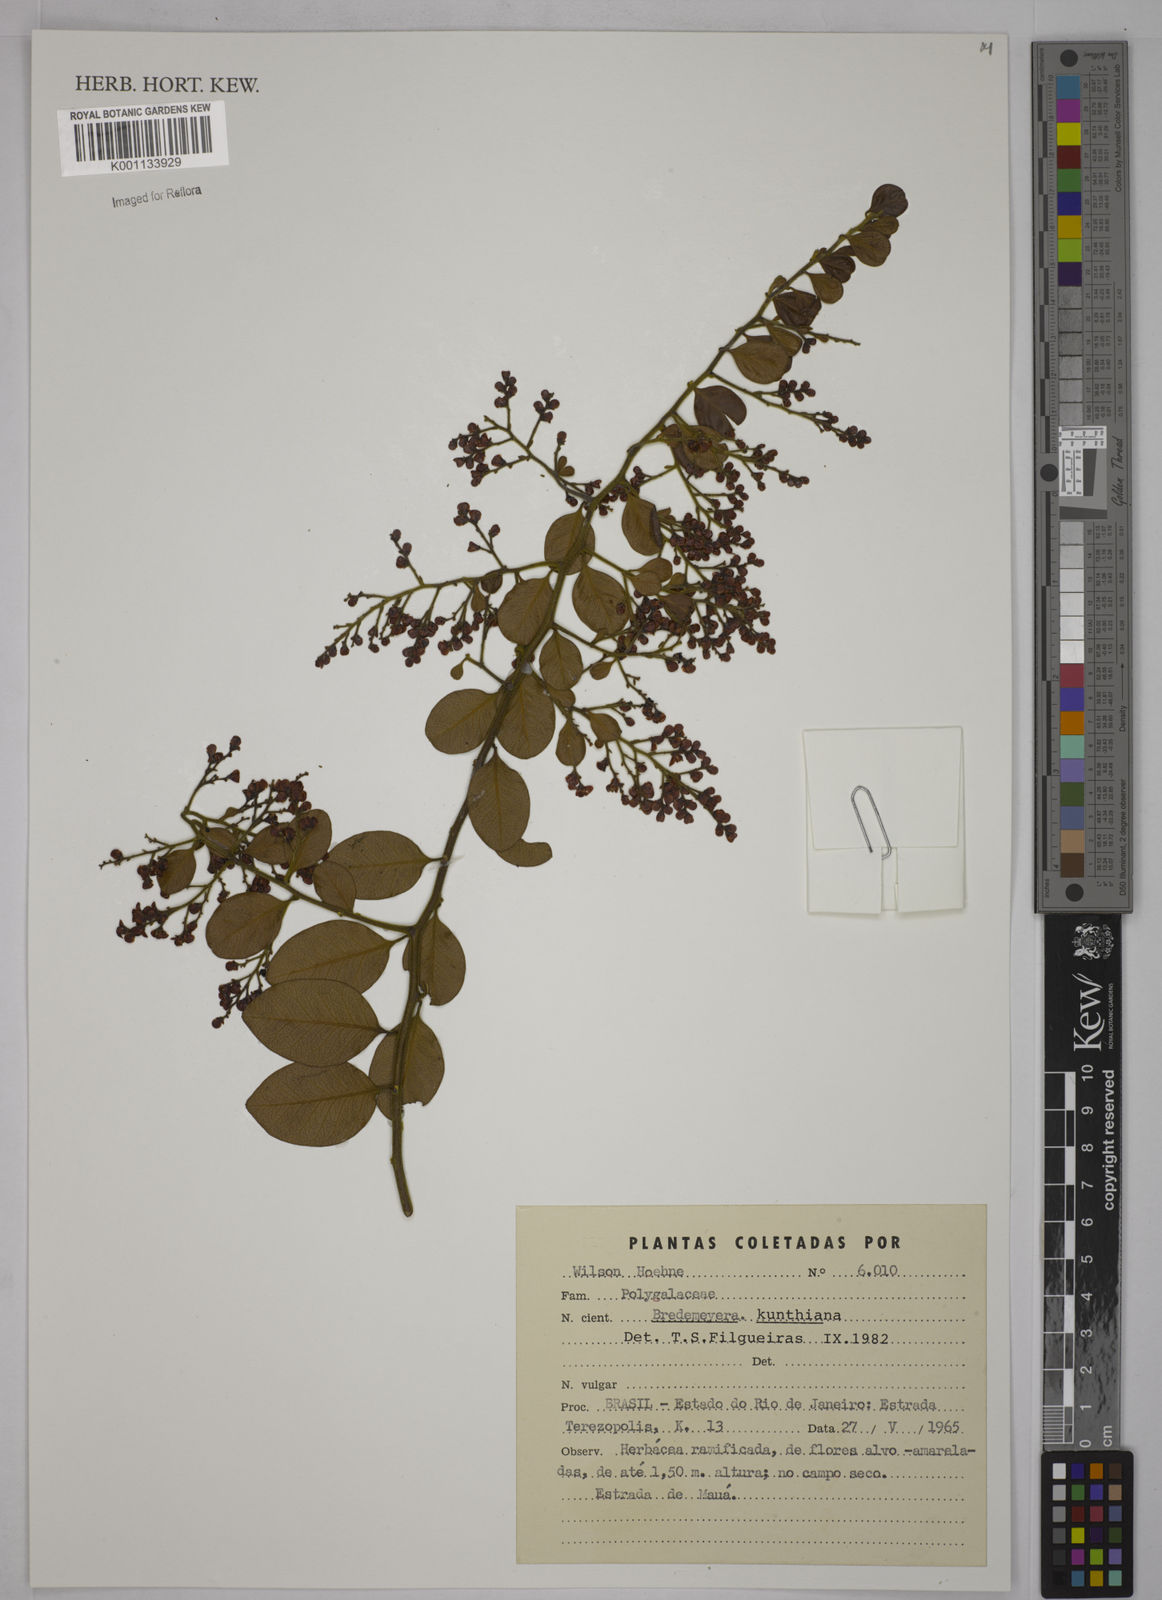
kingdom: Plantae
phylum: Tracheophyta
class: Magnoliopsida
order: Fabales
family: Polygalaceae
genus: Bredemeyera
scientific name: Bredemeyera hebeclada
